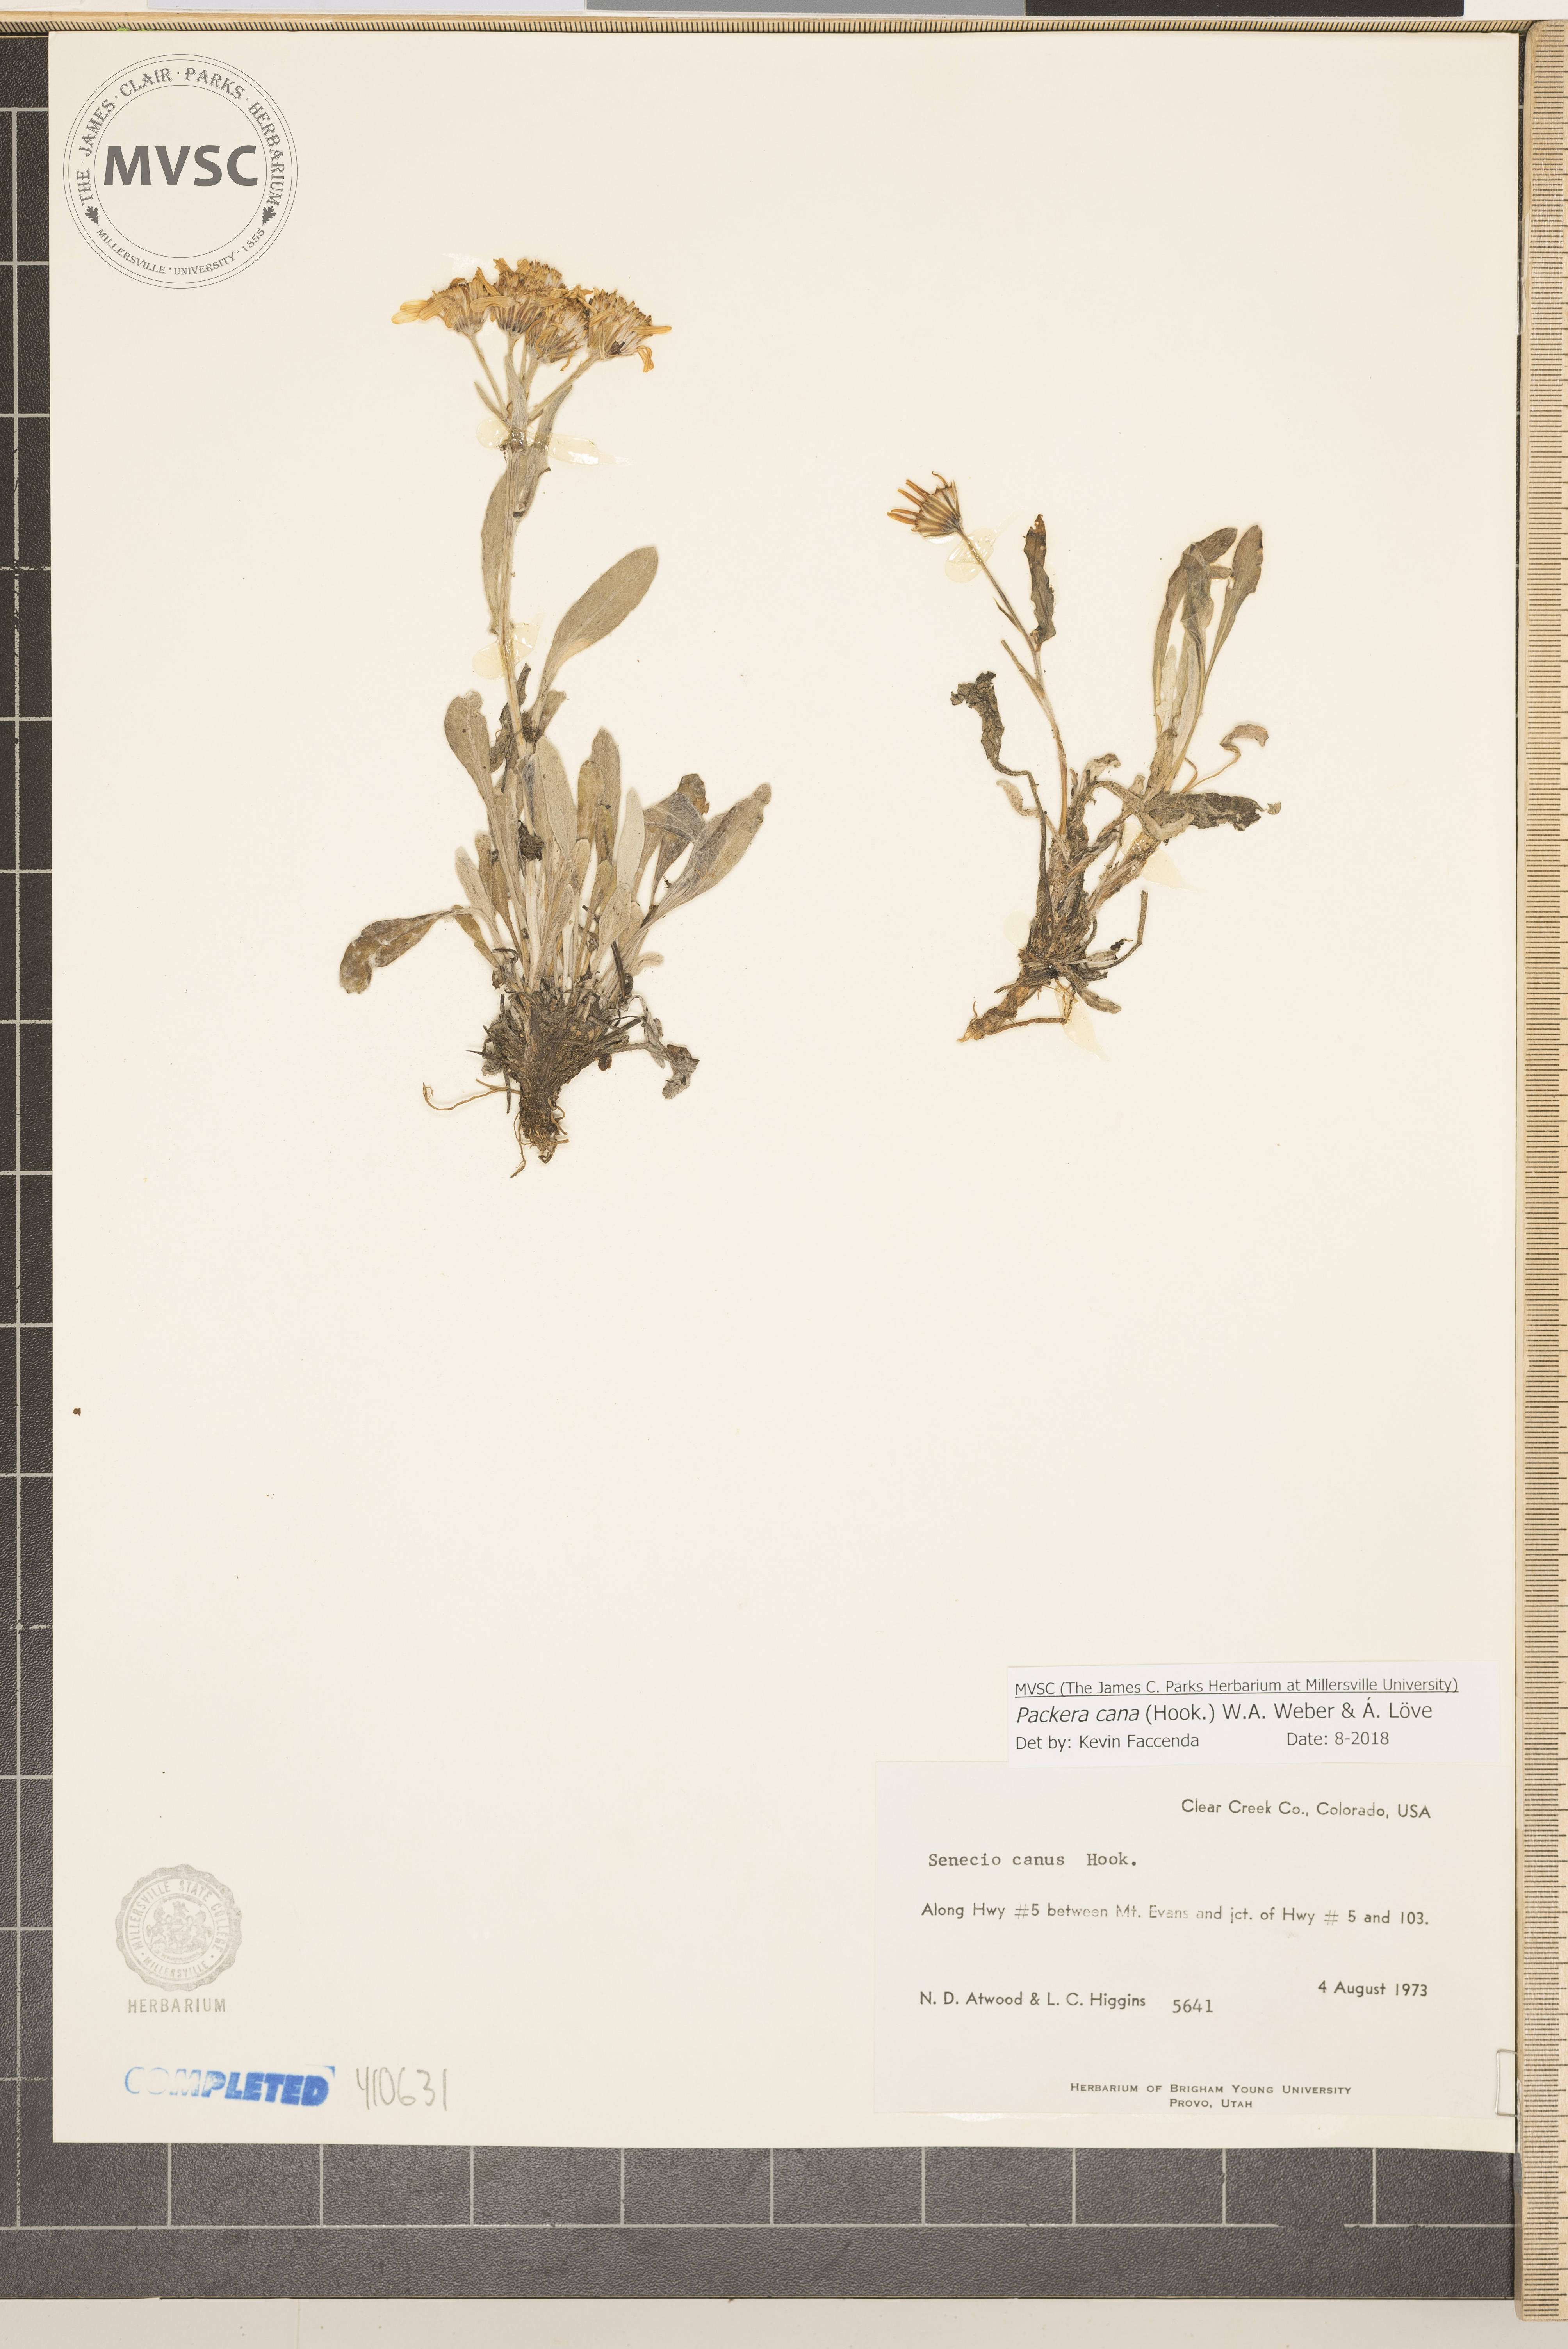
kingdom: Plantae
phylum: Tracheophyta
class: Magnoliopsida
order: Asterales
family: Asteraceae
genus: Packera
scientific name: Packera cana
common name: Woolly groundsel
